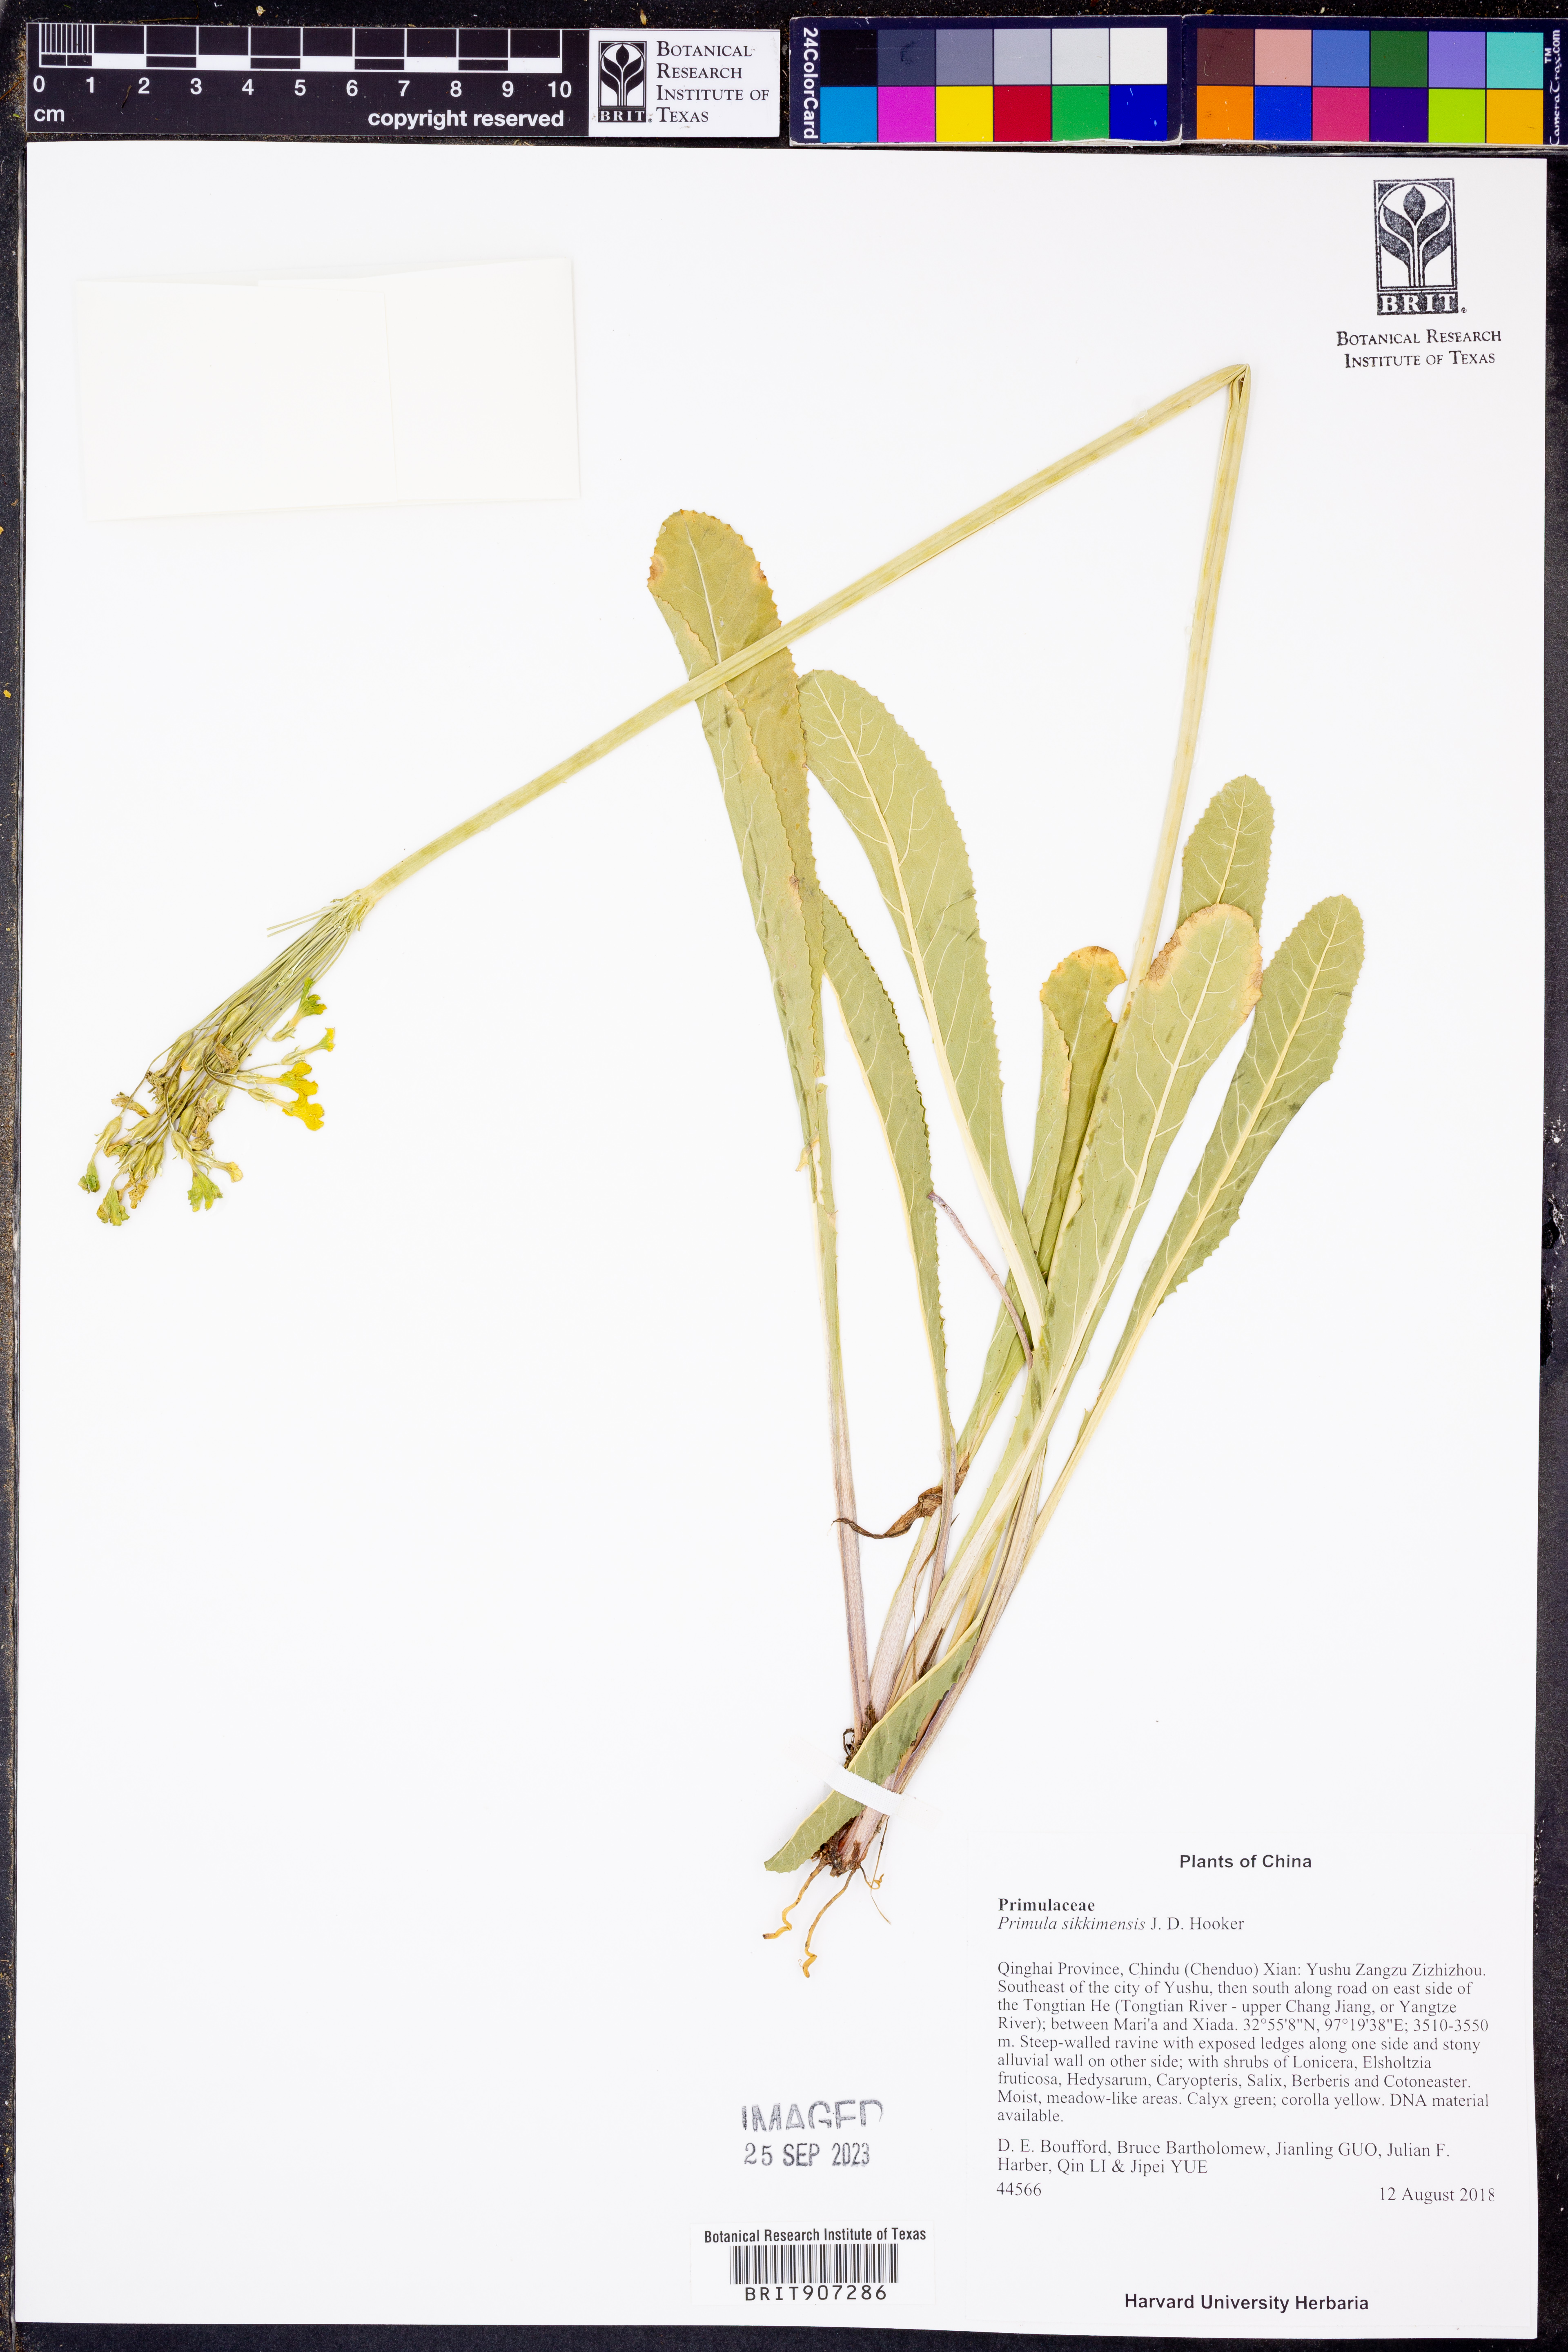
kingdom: Plantae
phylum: Tracheophyta
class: Magnoliopsida
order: Ericales
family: Primulaceae
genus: Primula
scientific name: Primula sikkimensis
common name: Sikkim cowslip
